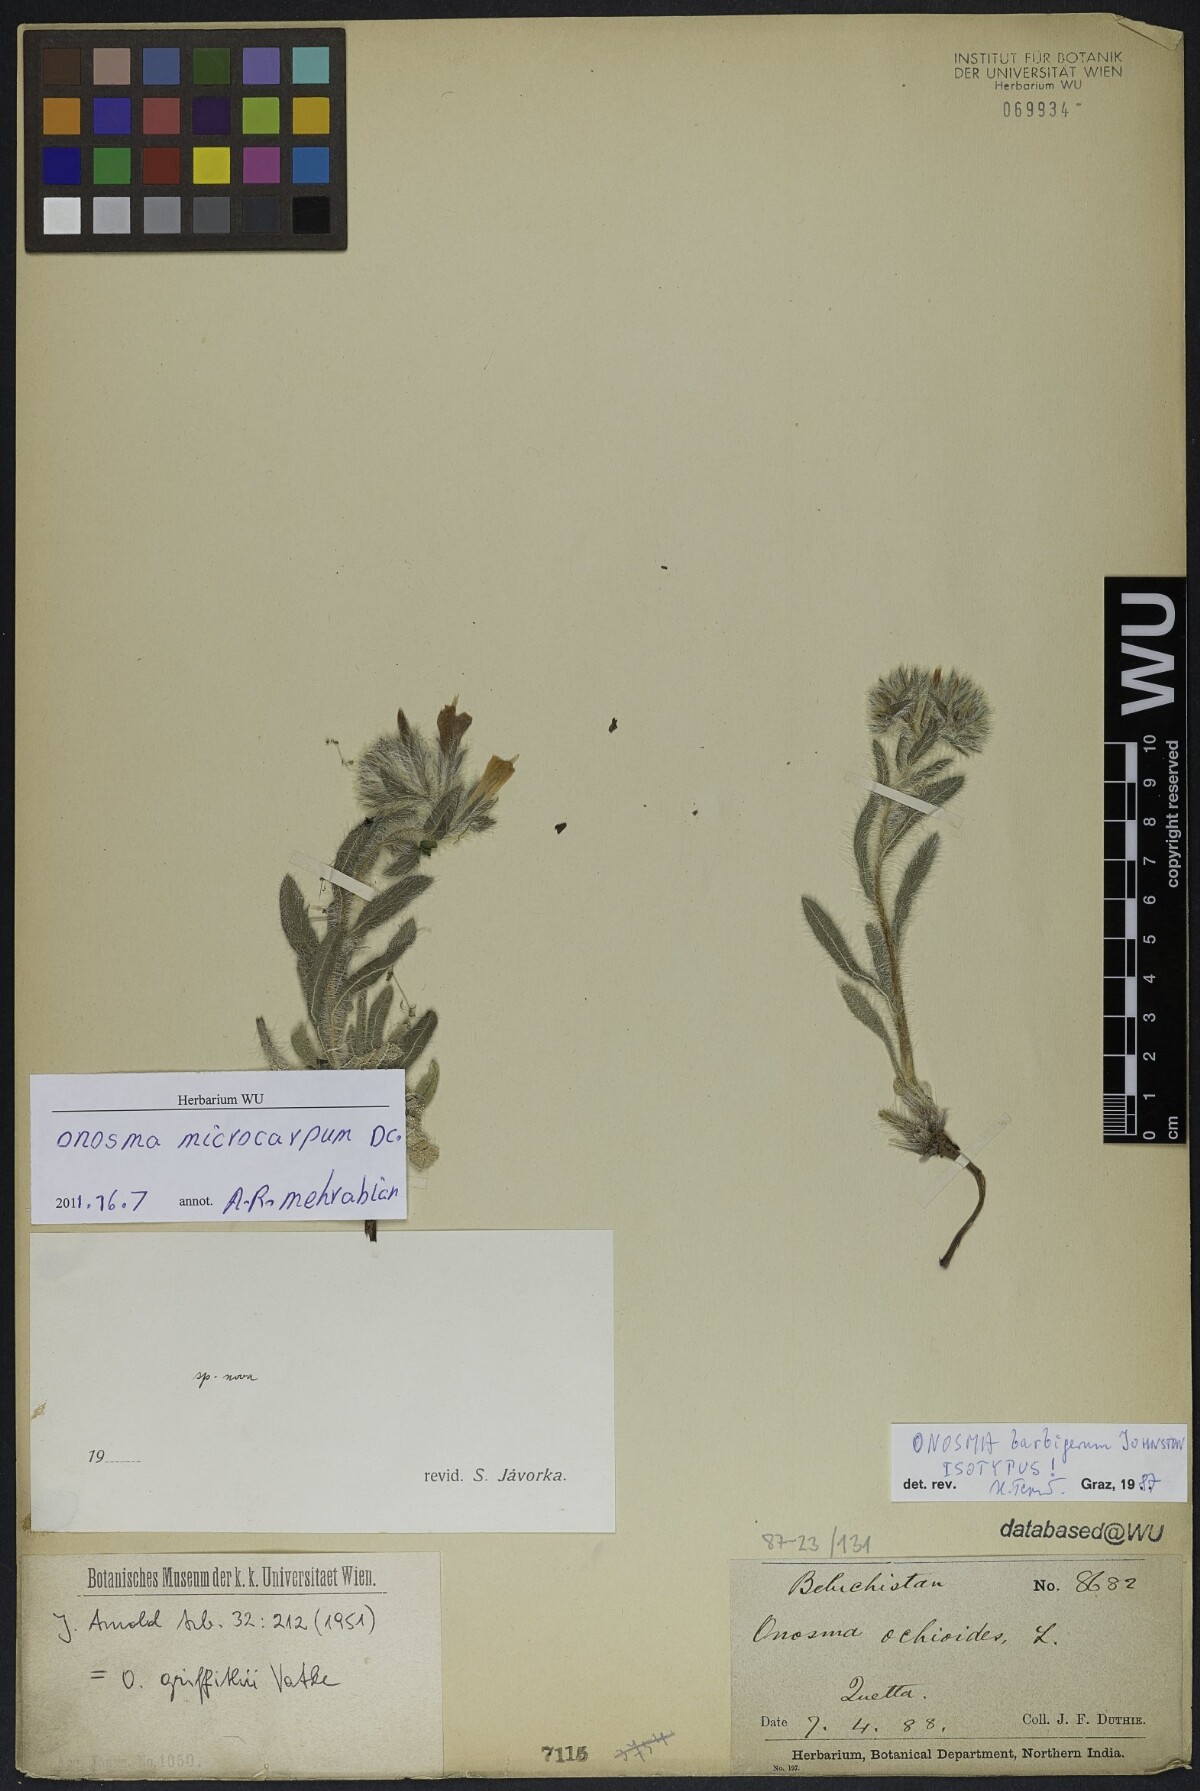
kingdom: Plantae
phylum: Tracheophyta
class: Magnoliopsida
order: Boraginales
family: Boraginaceae
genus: Onosma
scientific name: Onosma griffithii
